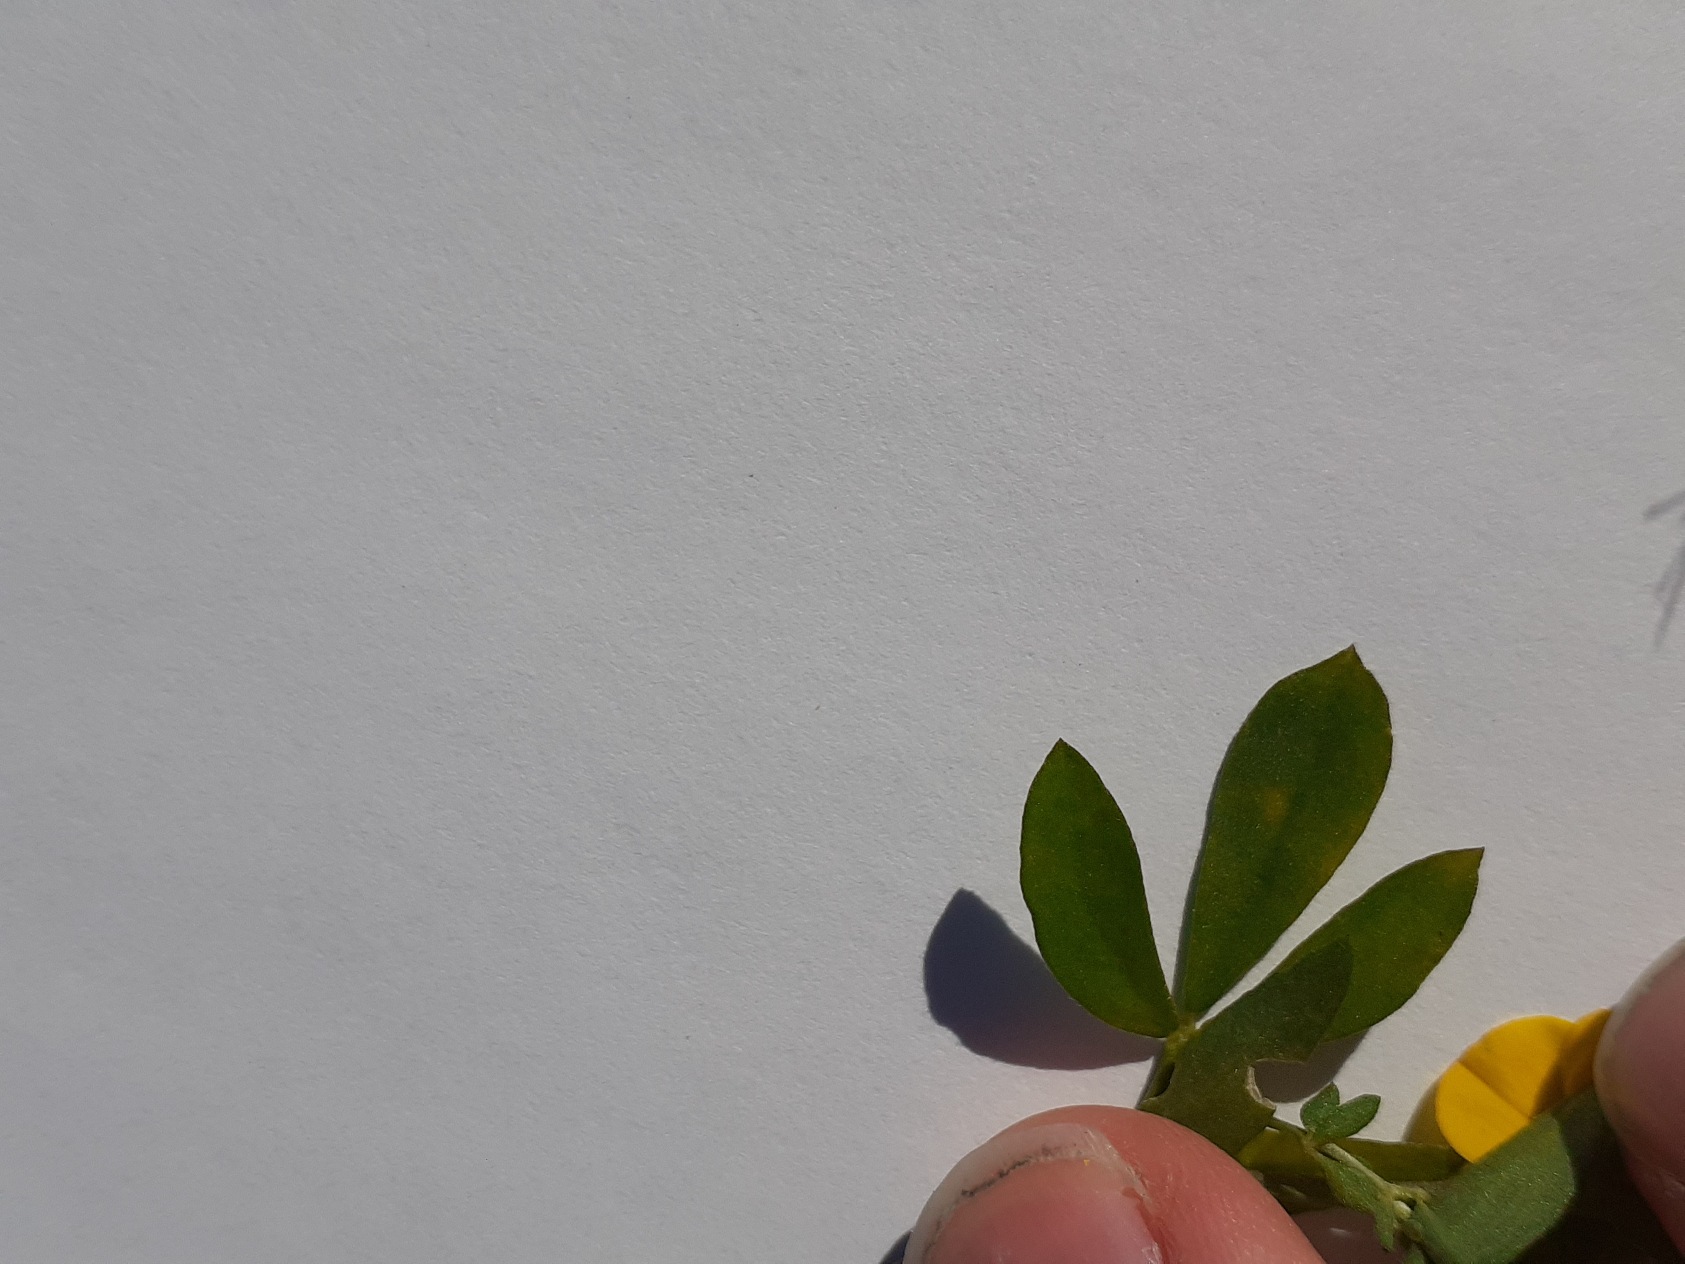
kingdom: Plantae
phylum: Tracheophyta
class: Magnoliopsida
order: Fabales
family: Fabaceae
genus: Lotus
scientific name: Lotus corniculatus
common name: Almindelig kællingetand
